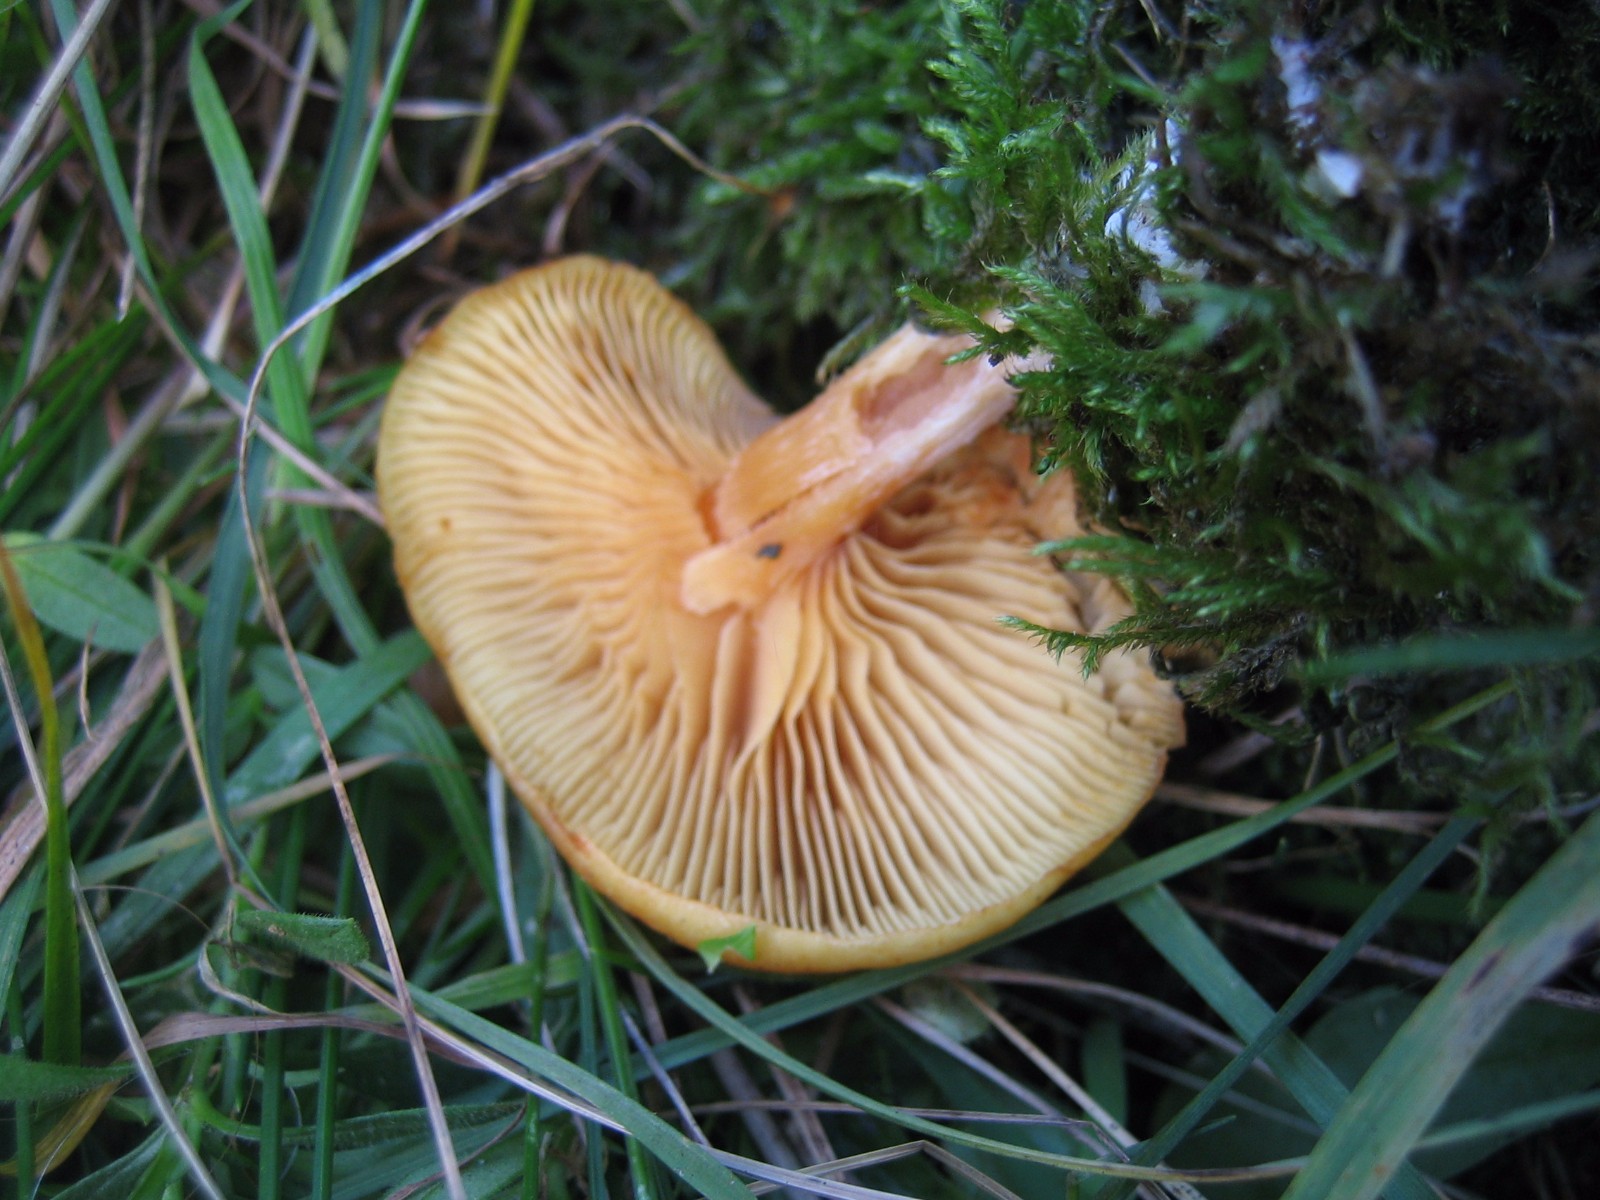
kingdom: Fungi
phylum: Basidiomycota
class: Agaricomycetes
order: Agaricales
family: Hymenogastraceae
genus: Gymnopilus
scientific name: Gymnopilus penetrans
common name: plettet flammehat
